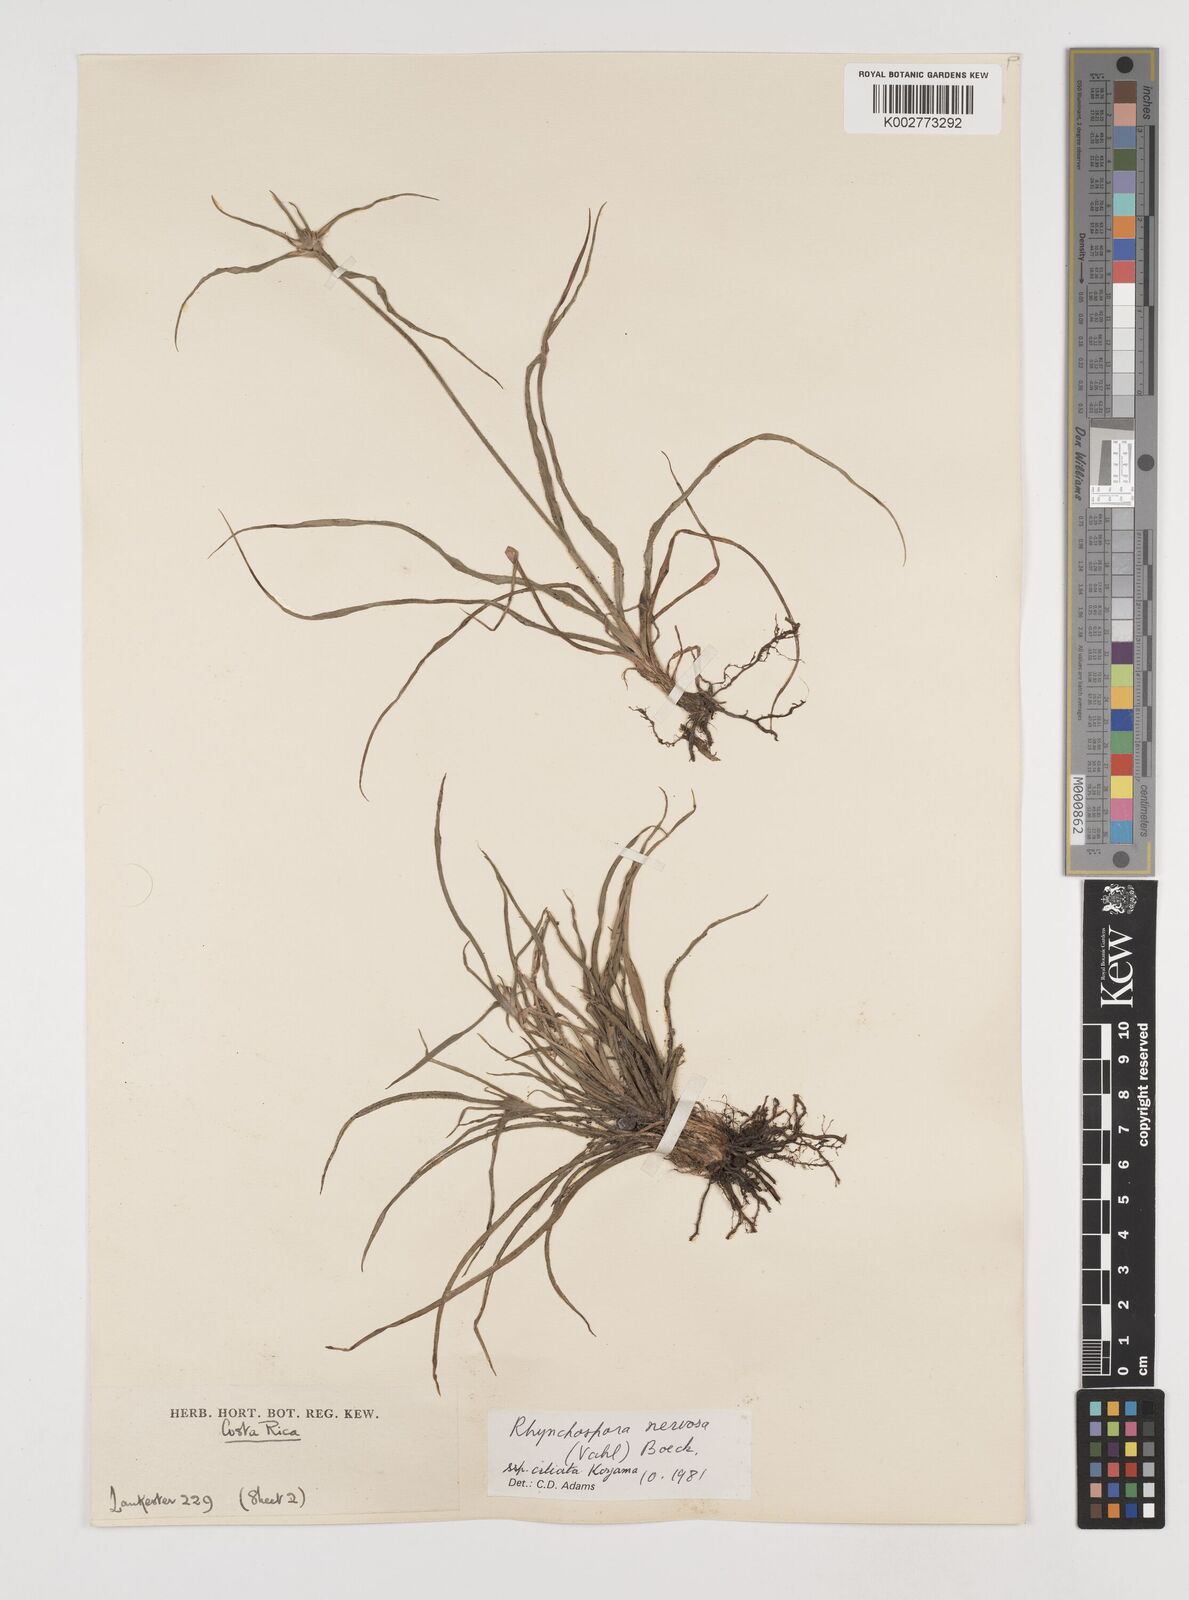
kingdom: Plantae
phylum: Tracheophyta
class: Liliopsida
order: Poales
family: Cyperaceae
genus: Rhynchospora
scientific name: Rhynchospora pura
